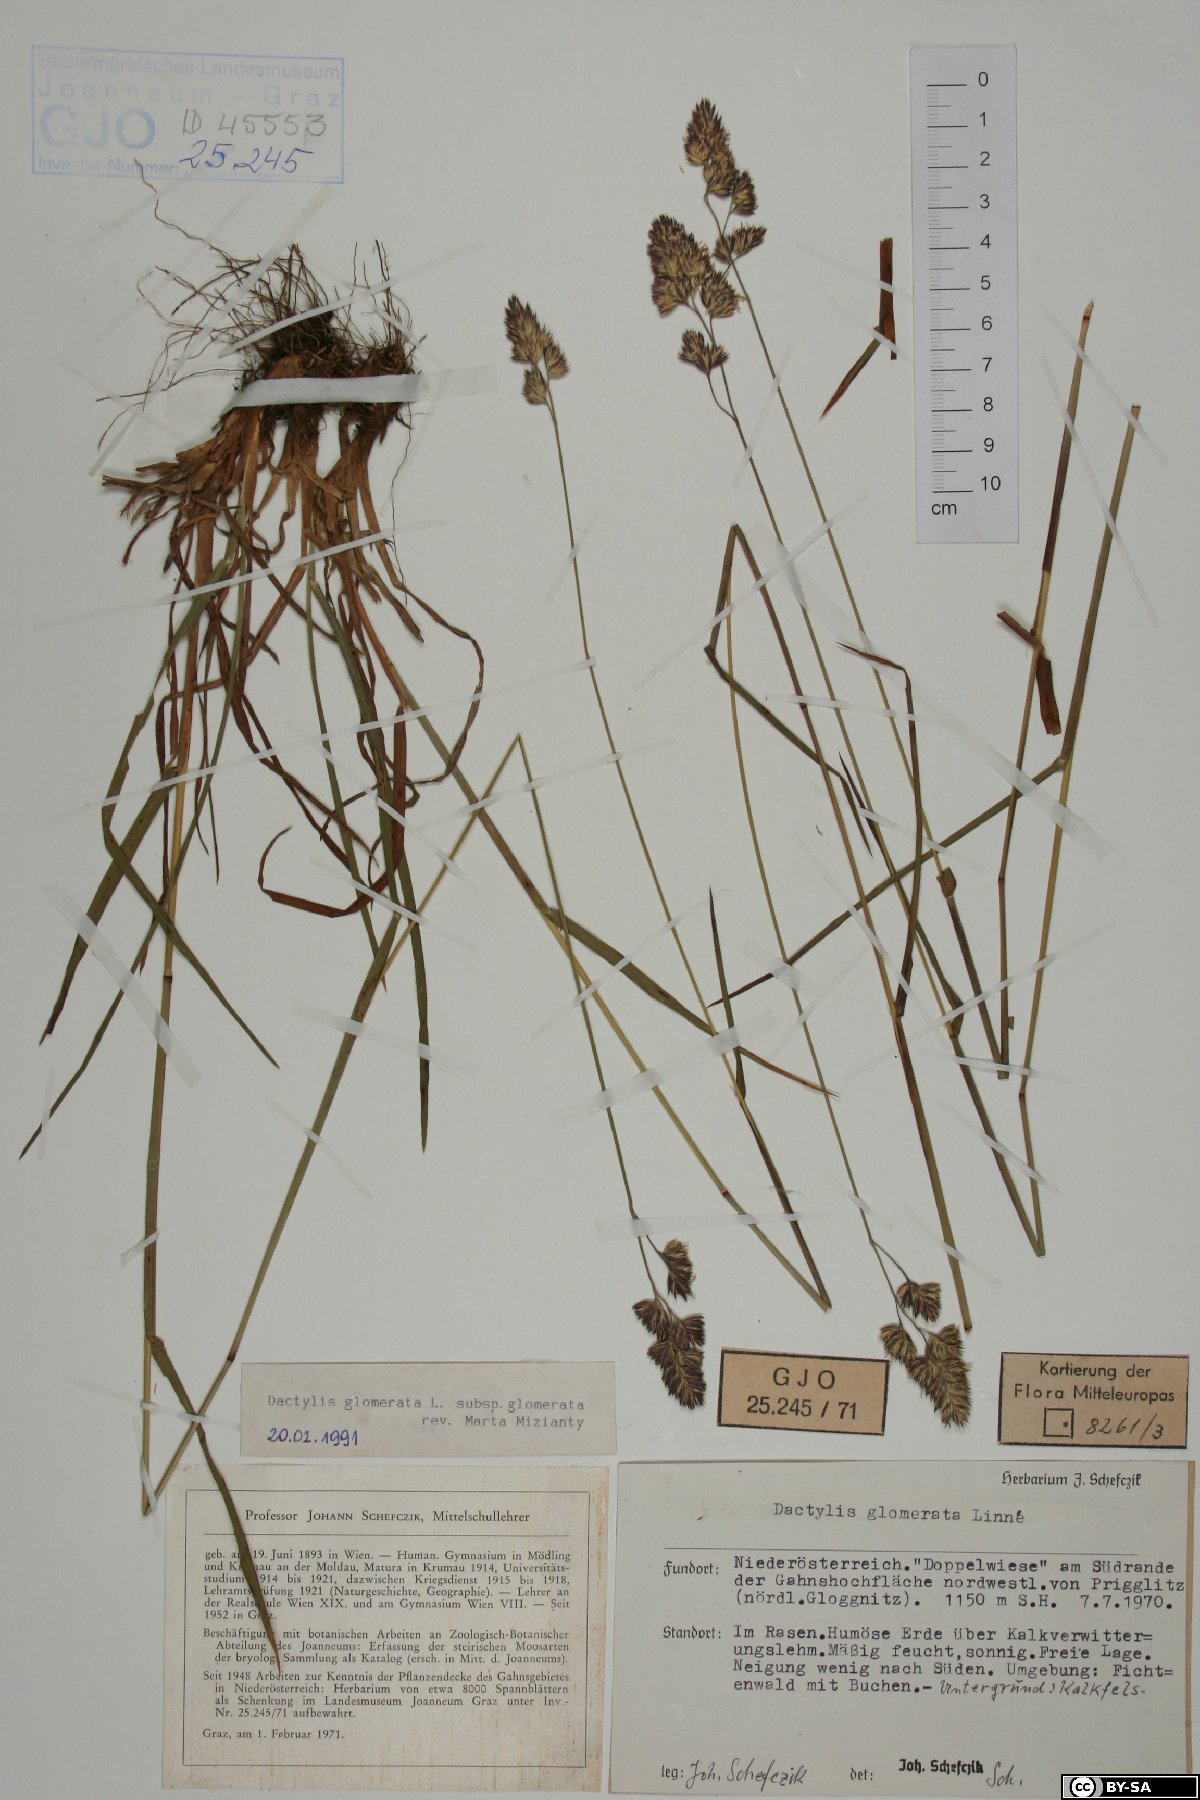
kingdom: Plantae
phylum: Tracheophyta
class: Liliopsida
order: Poales
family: Poaceae
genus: Dactylis
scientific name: Dactylis glomerata
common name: Orchardgrass
